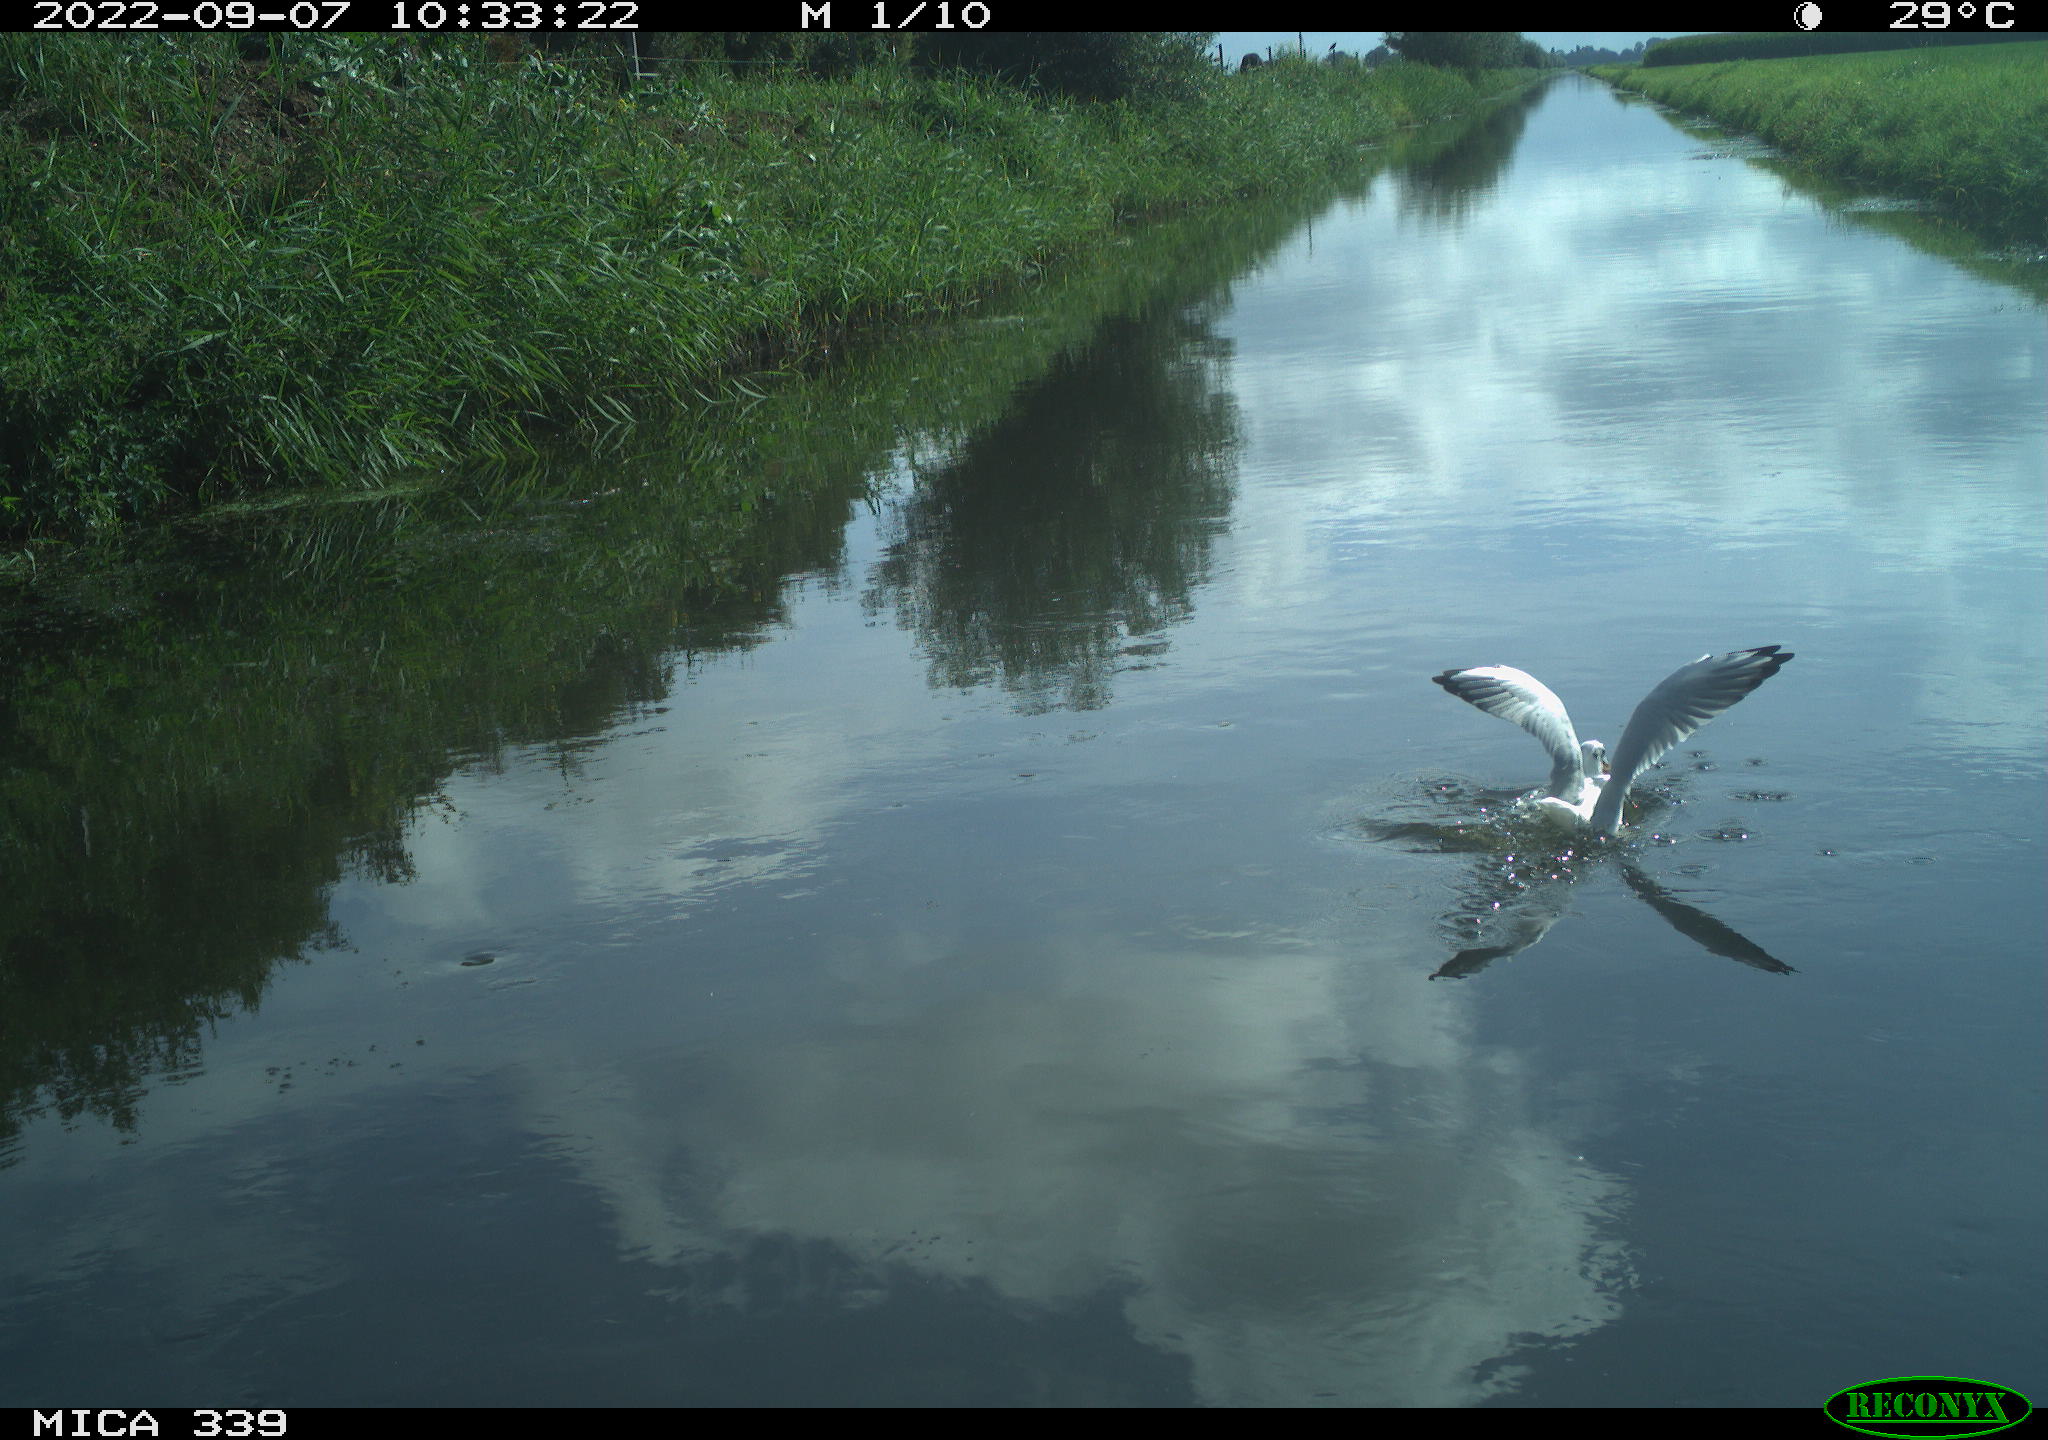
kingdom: Animalia
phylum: Chordata
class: Aves
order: Charadriiformes
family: Laridae
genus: Chroicocephalus
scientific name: Chroicocephalus ridibundus
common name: Black-headed gull
